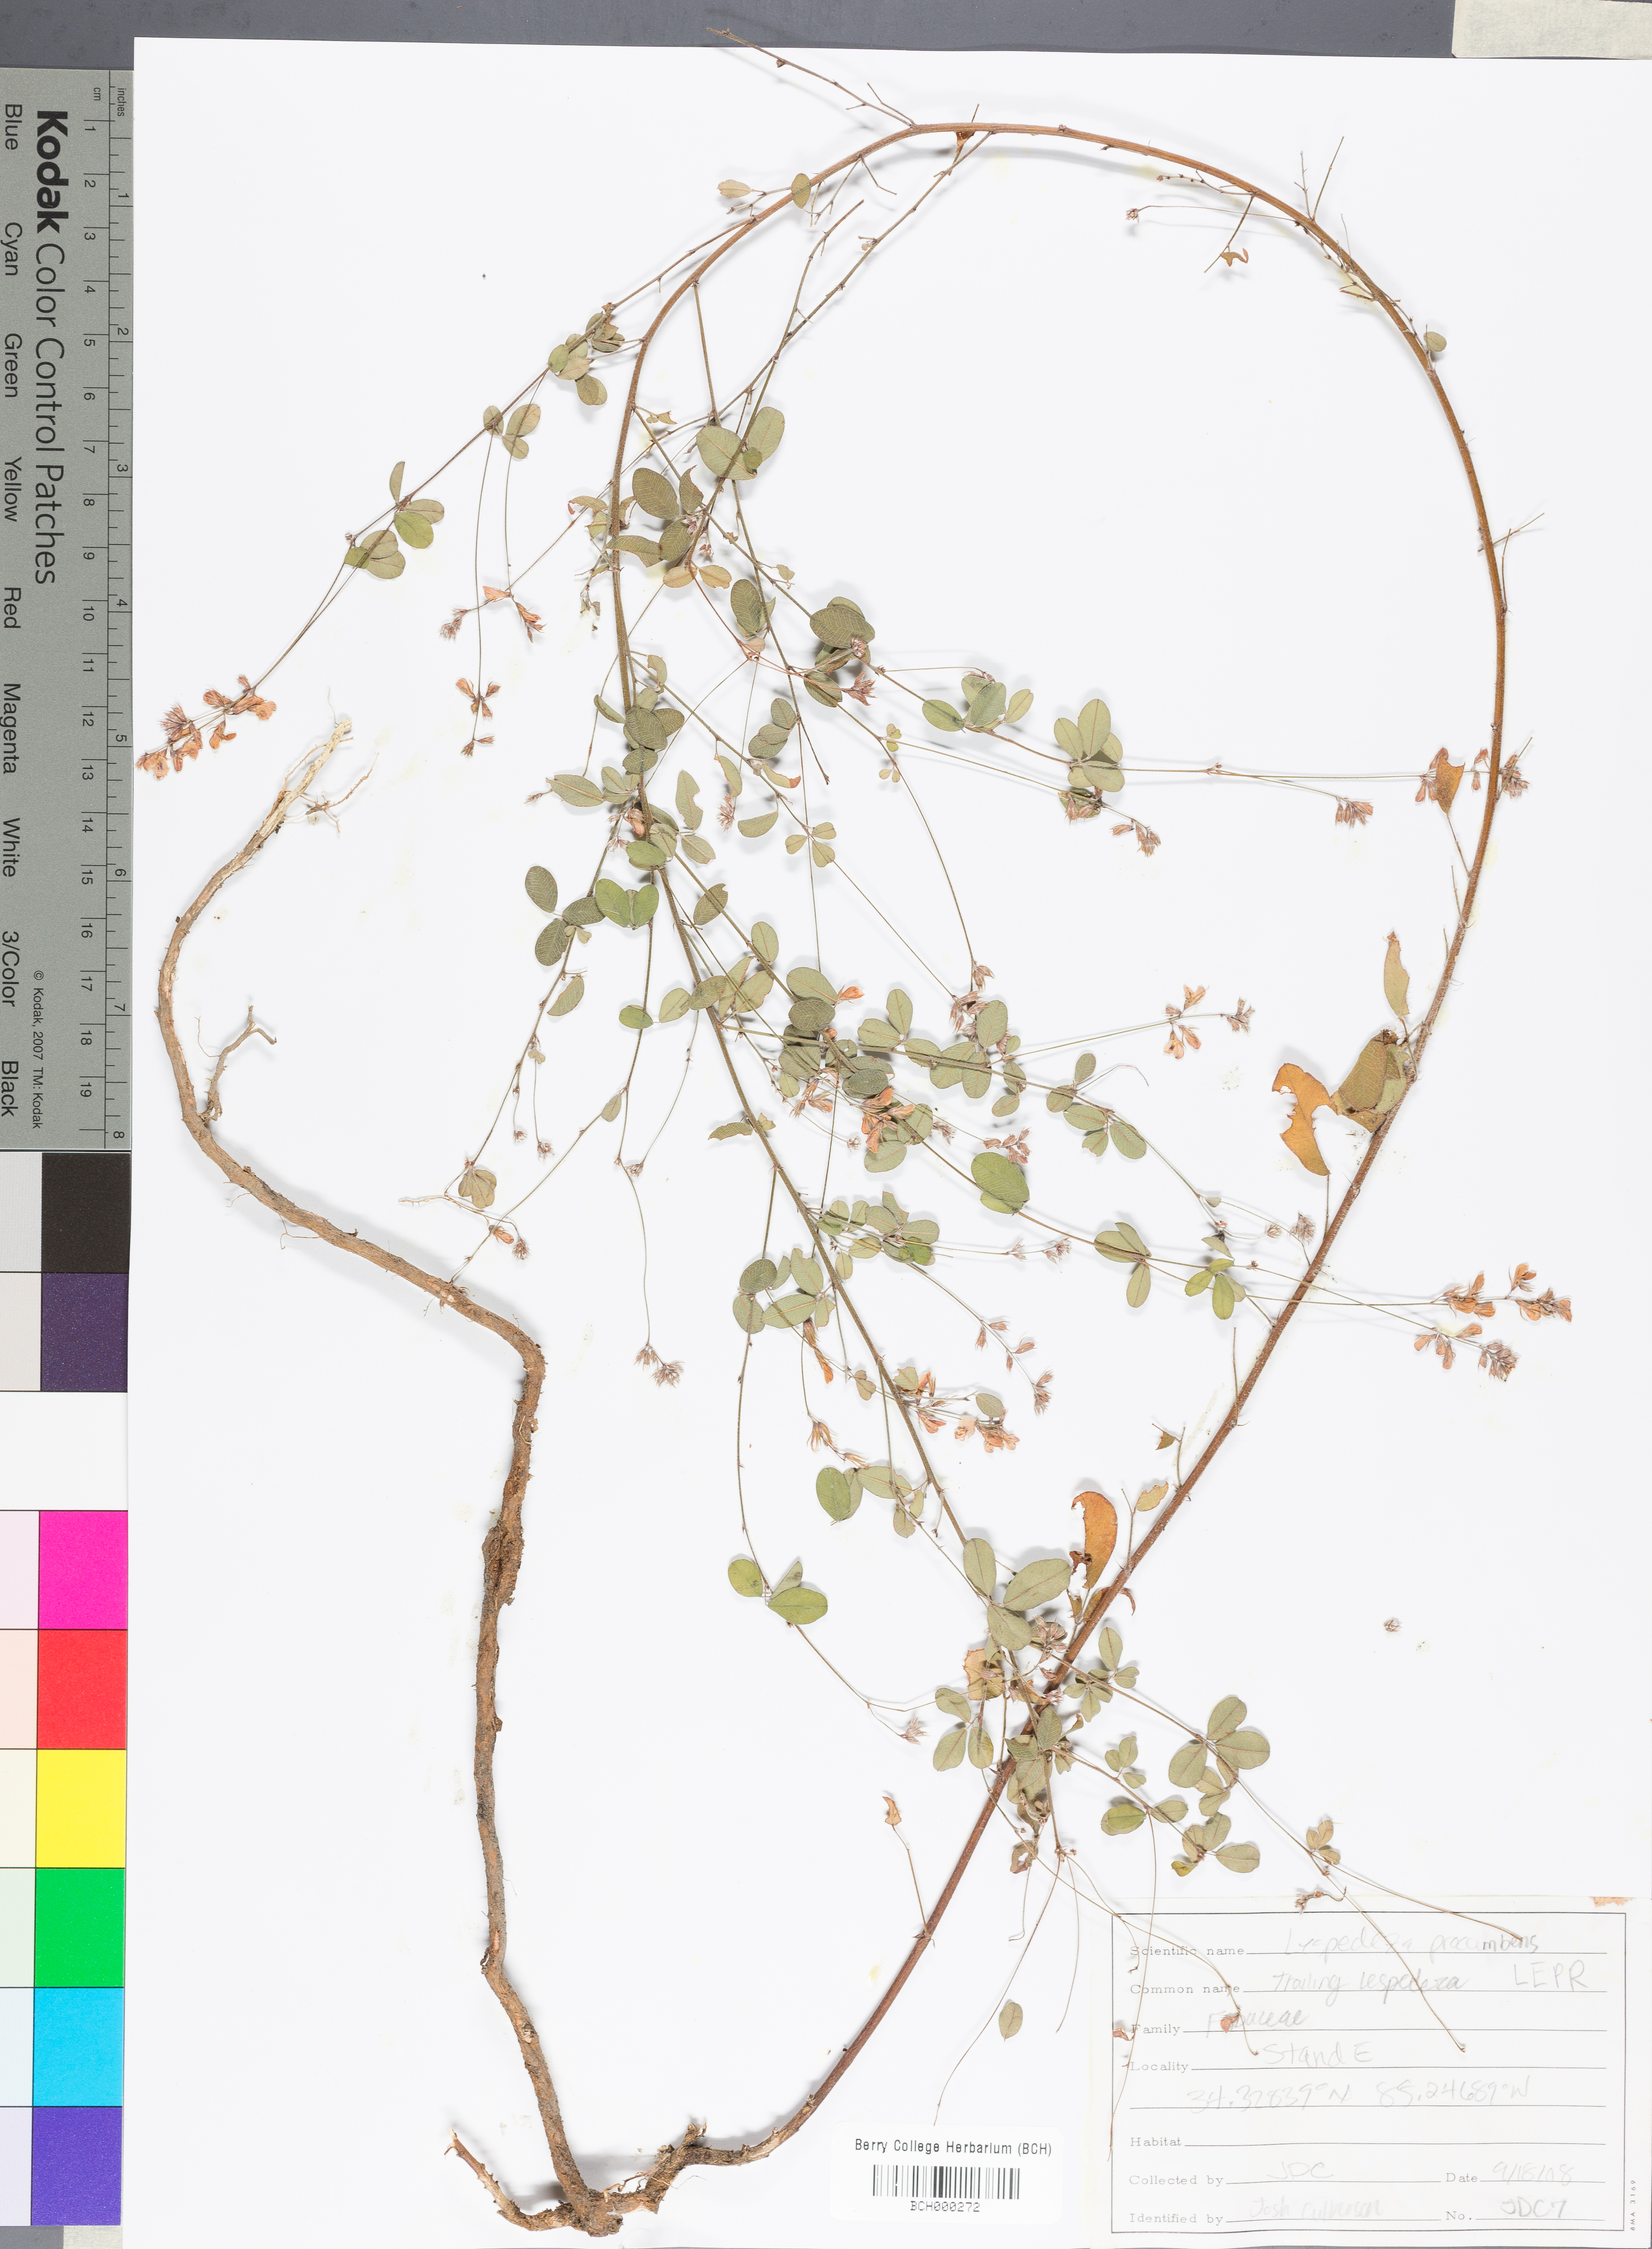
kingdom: Plantae
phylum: Tracheophyta
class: Magnoliopsida
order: Fabales
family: Fabaceae
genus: Lespedeza
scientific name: Lespedeza procumbens
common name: Downy trailing bush-clover
